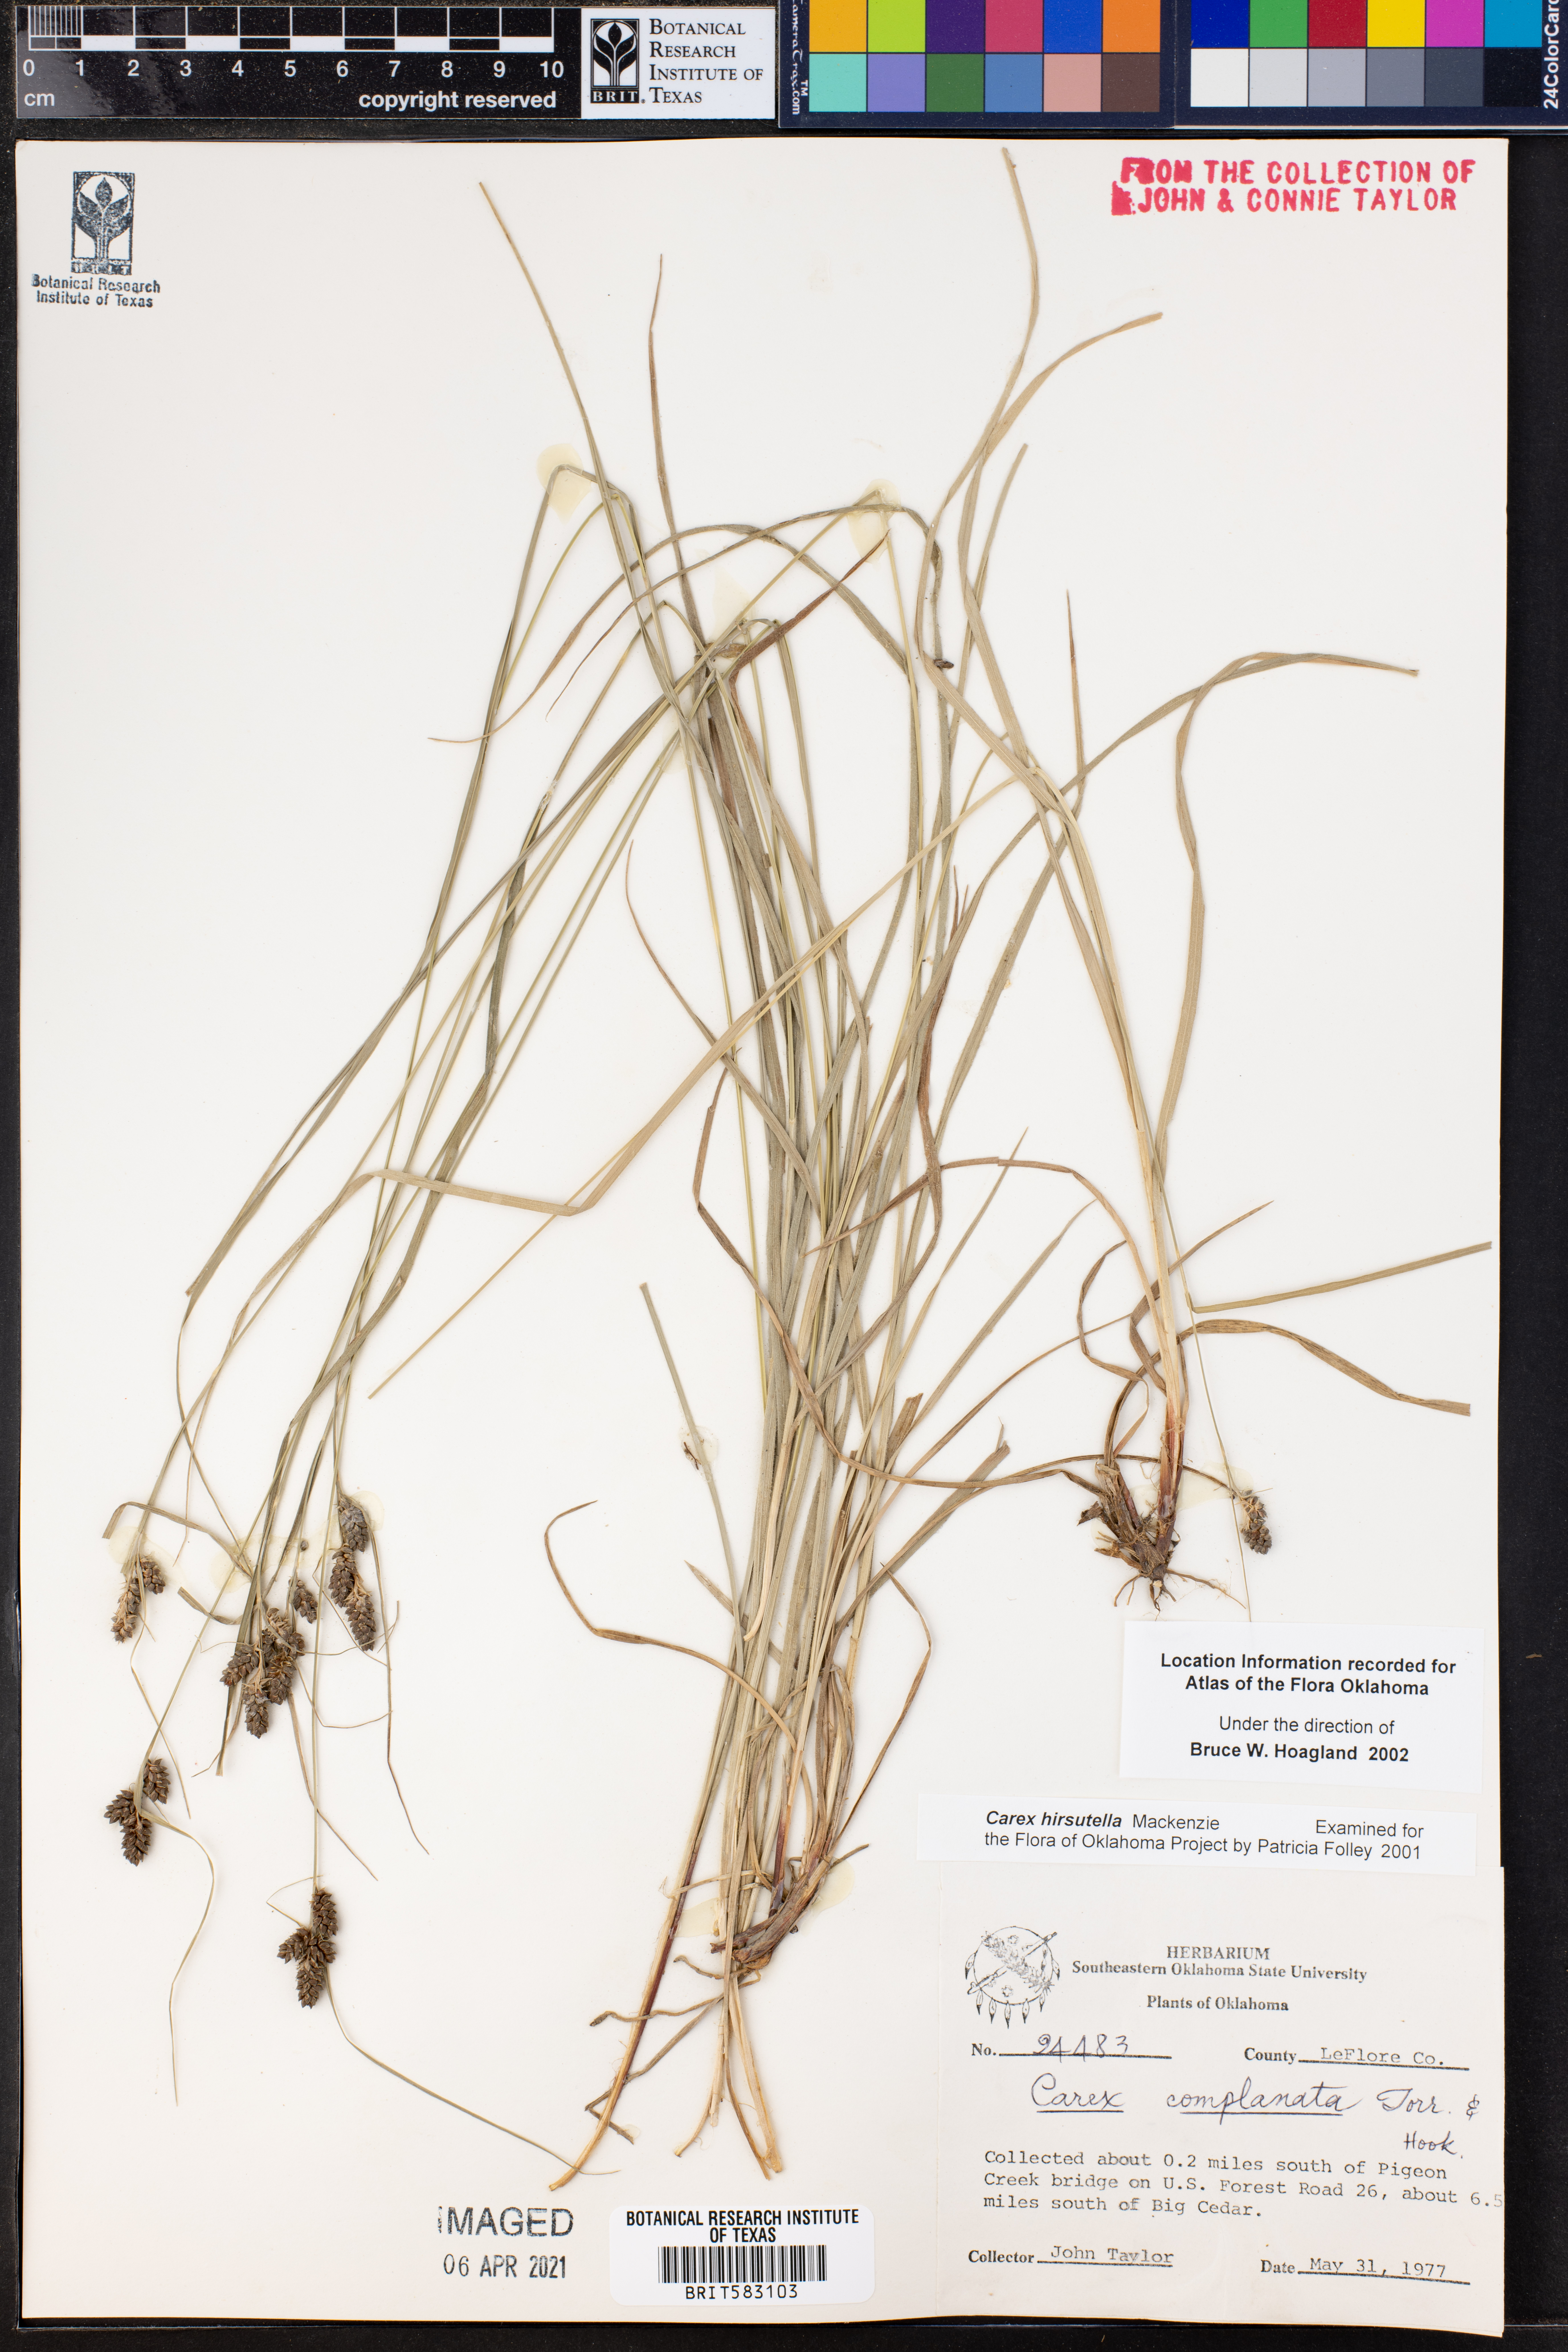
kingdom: Plantae
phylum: Tracheophyta
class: Liliopsida
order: Poales
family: Cyperaceae
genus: Carex
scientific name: Carex hirsutella
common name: Fuzzy wuzzy sedge
